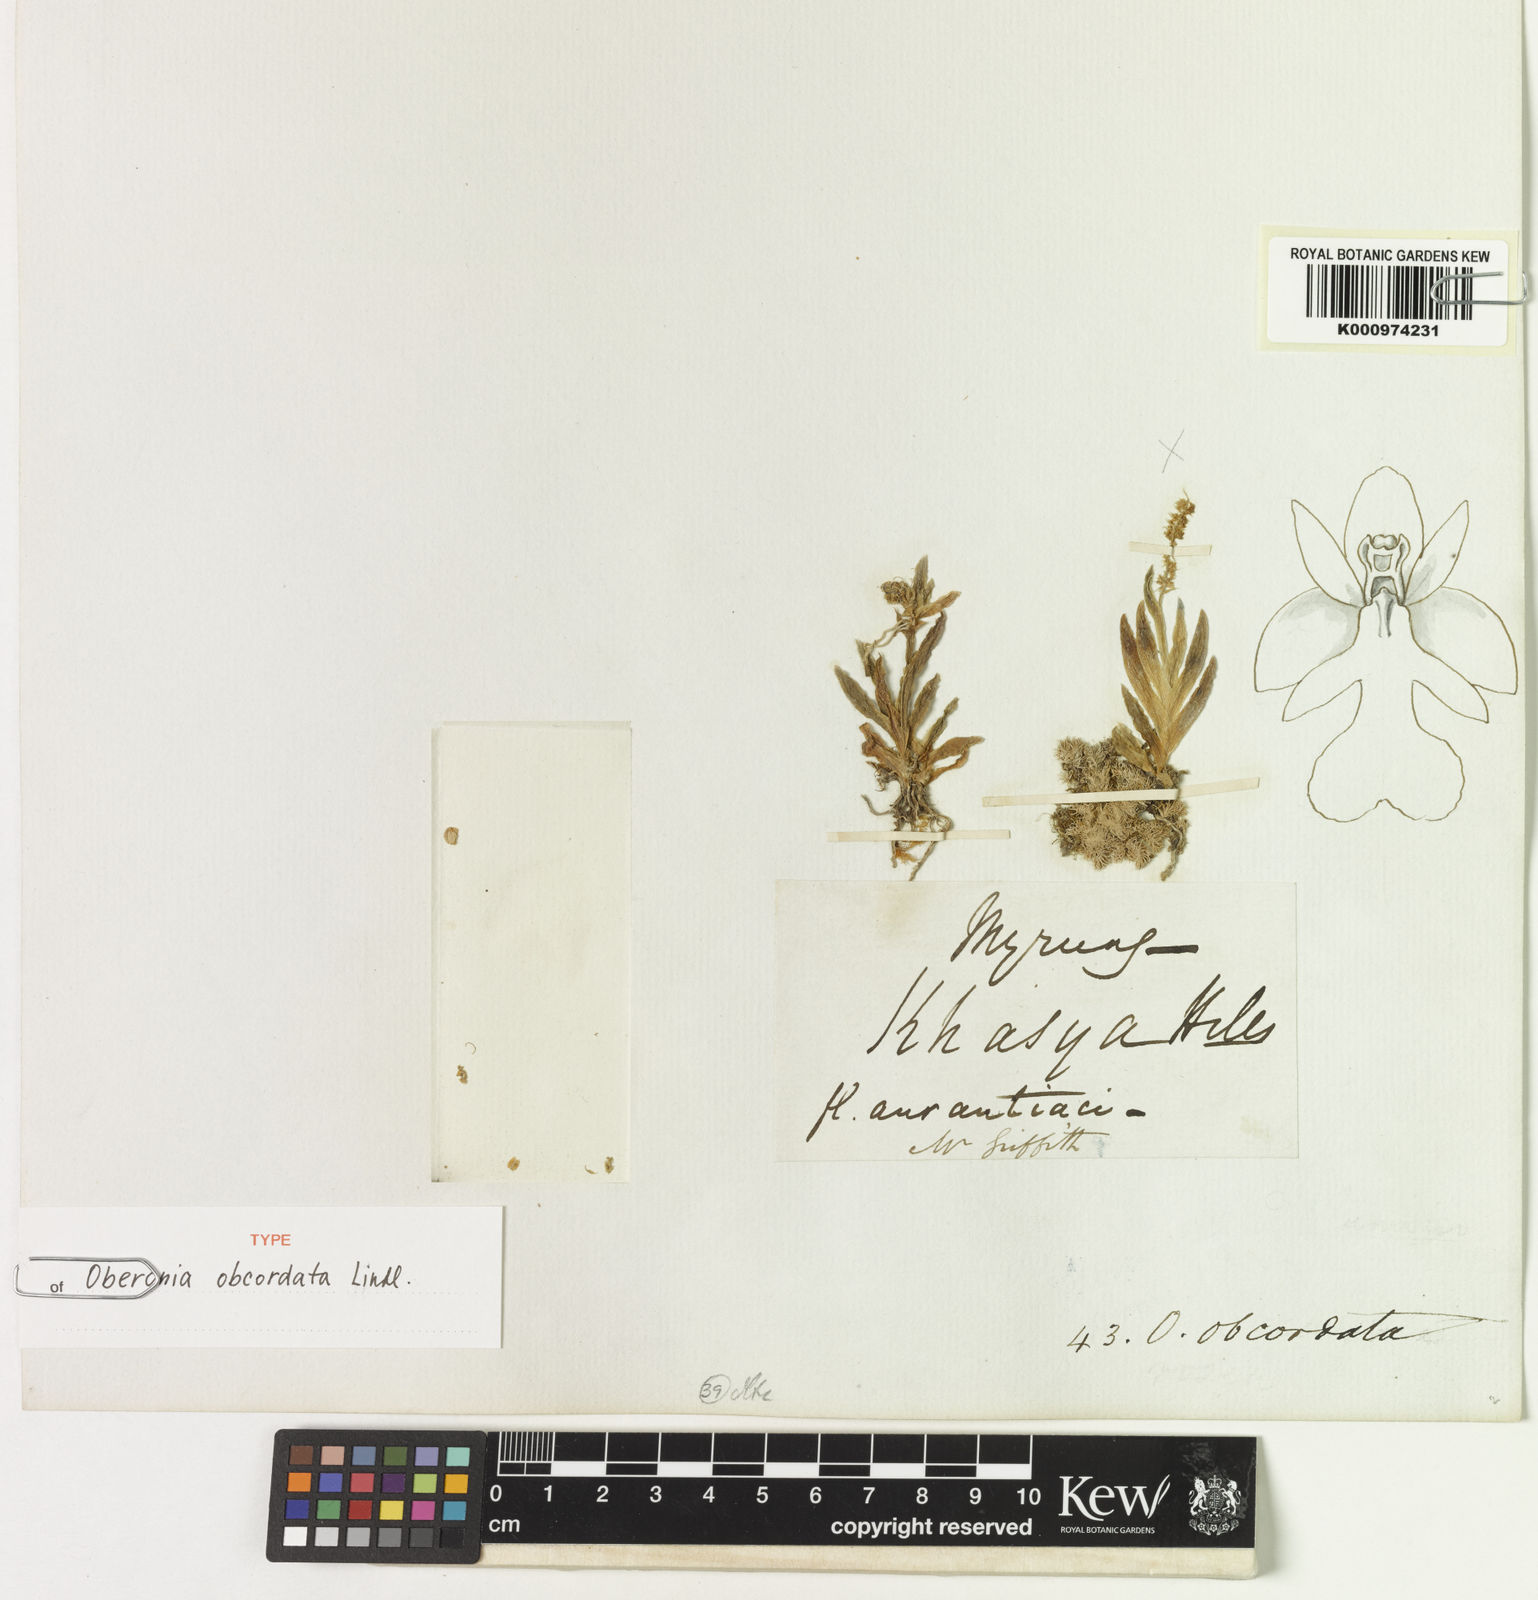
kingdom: Plantae
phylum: Tracheophyta
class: Liliopsida
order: Asparagales
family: Orchidaceae
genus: Oberonia
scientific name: Oberonia obcordata
